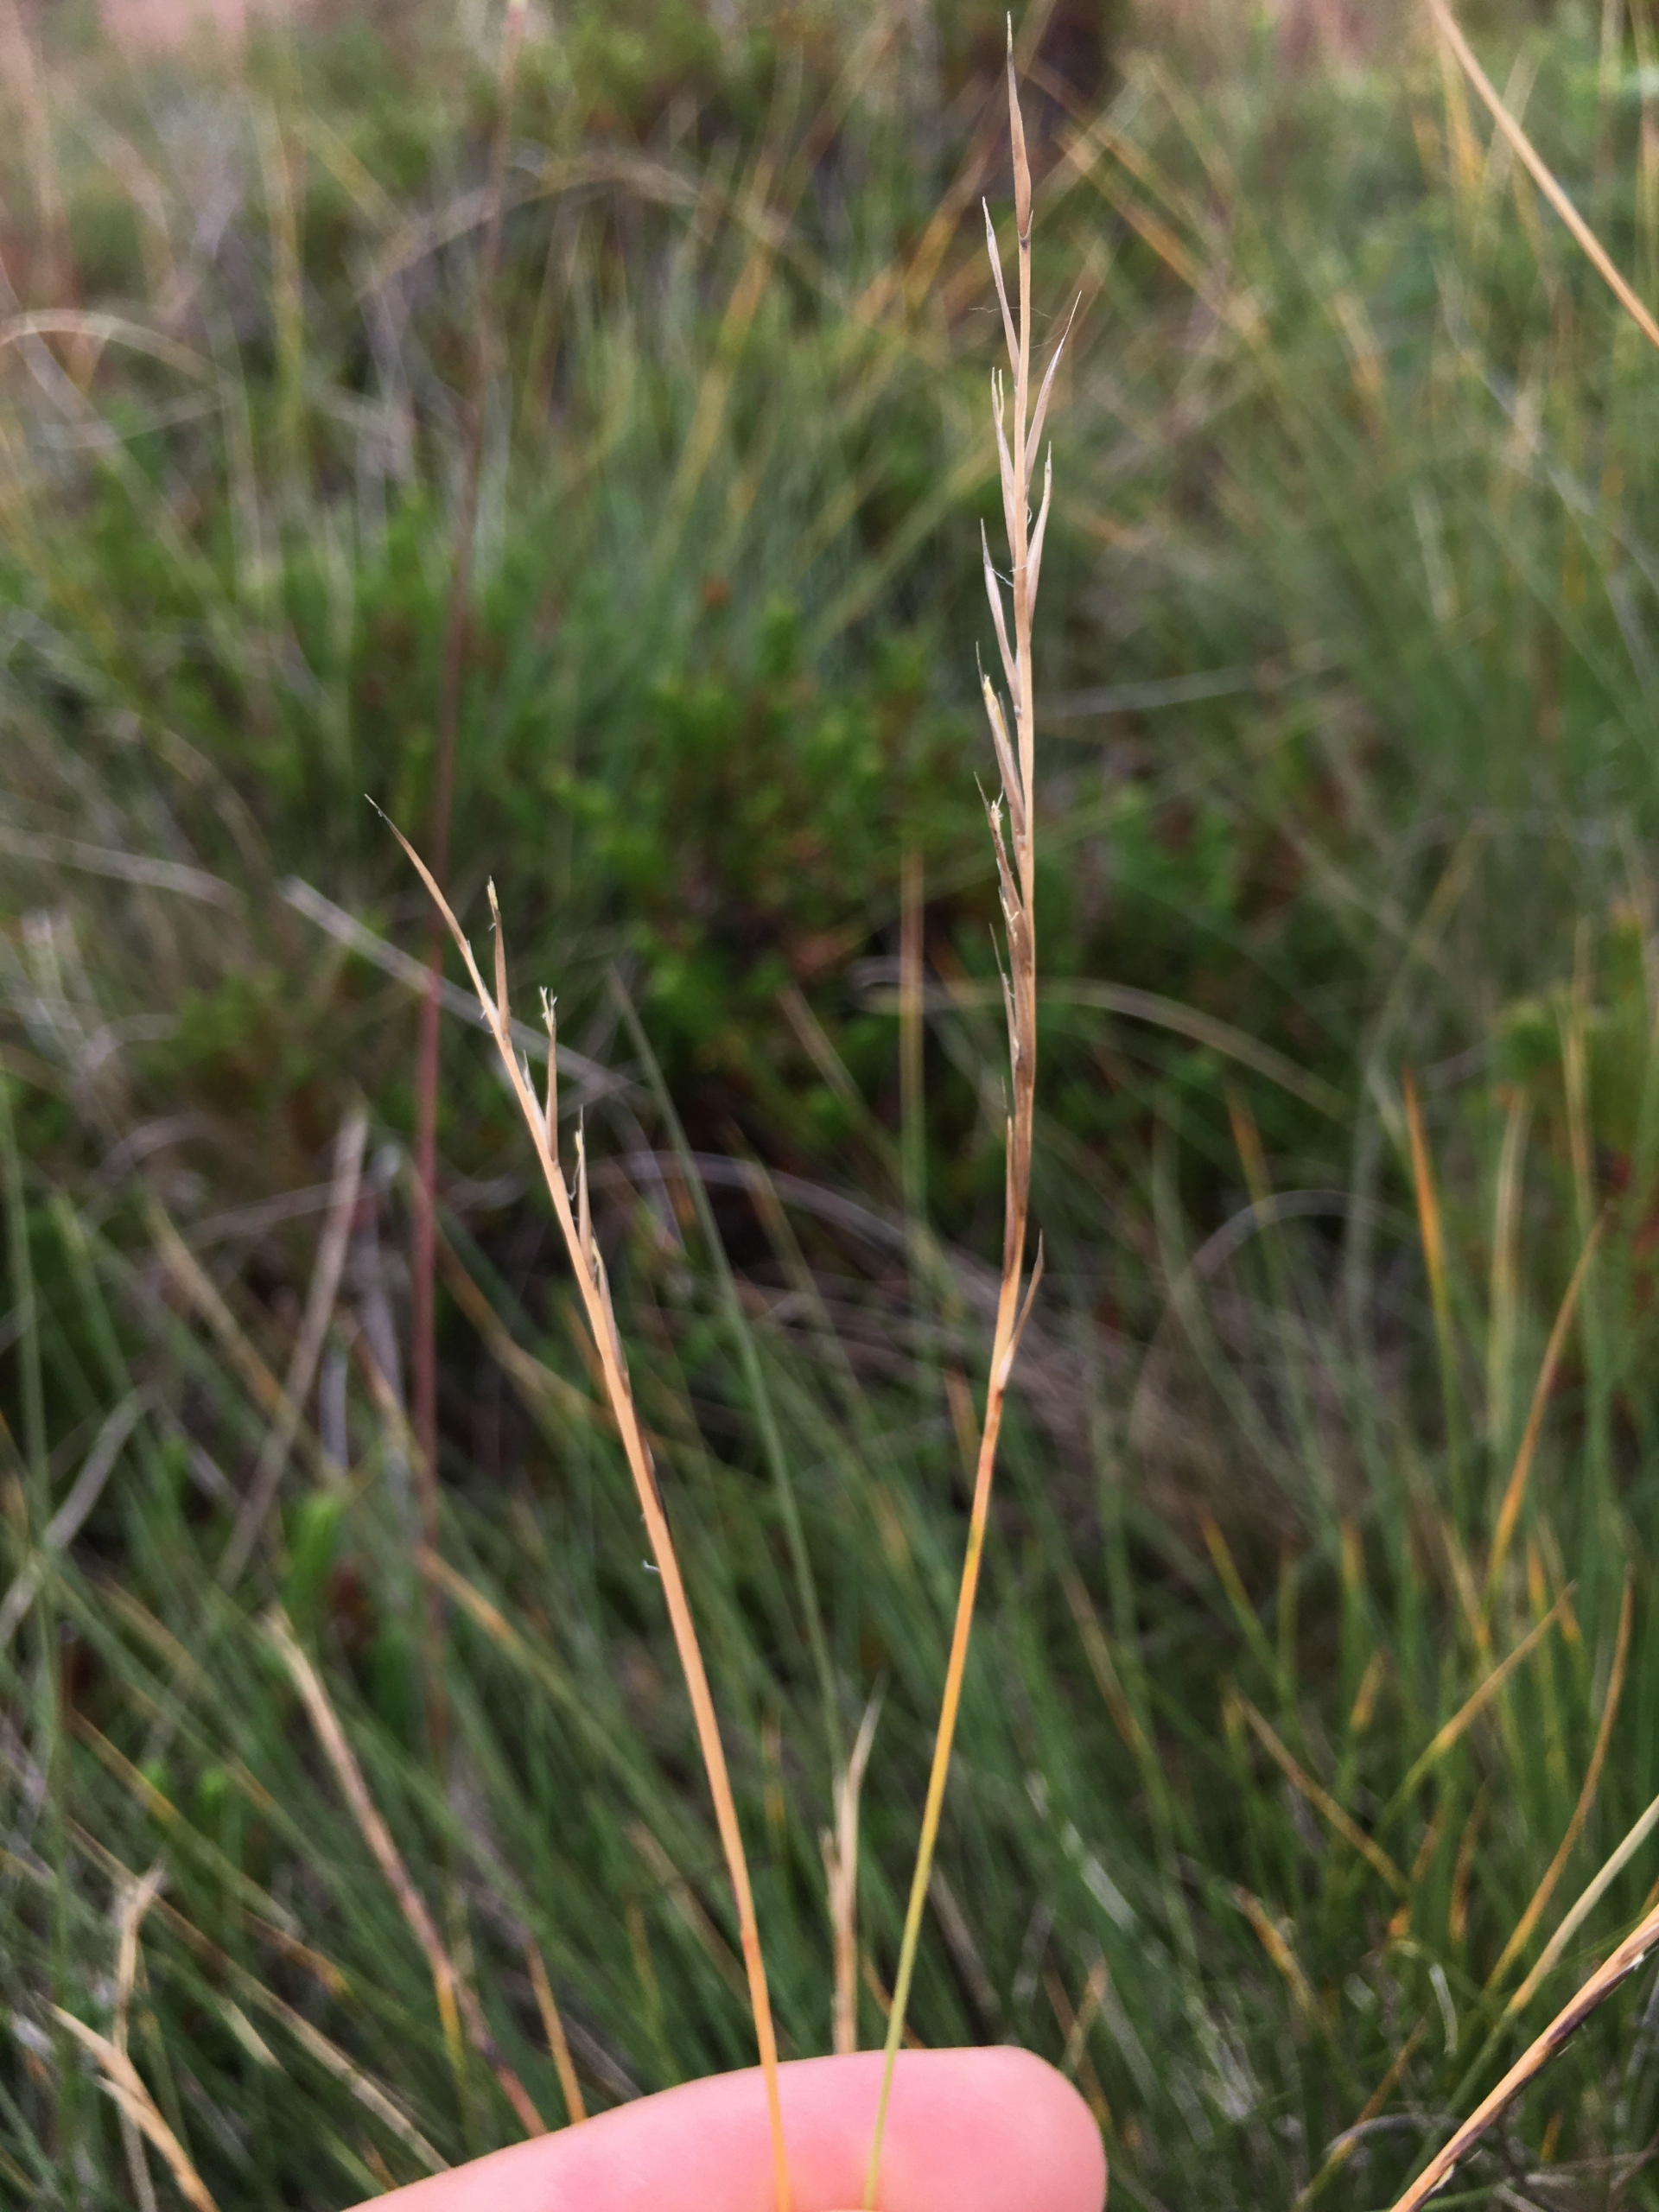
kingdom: Plantae
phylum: Tracheophyta
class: Liliopsida
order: Poales
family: Poaceae
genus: Nardus
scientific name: Nardus stricta
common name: Katteskæg
